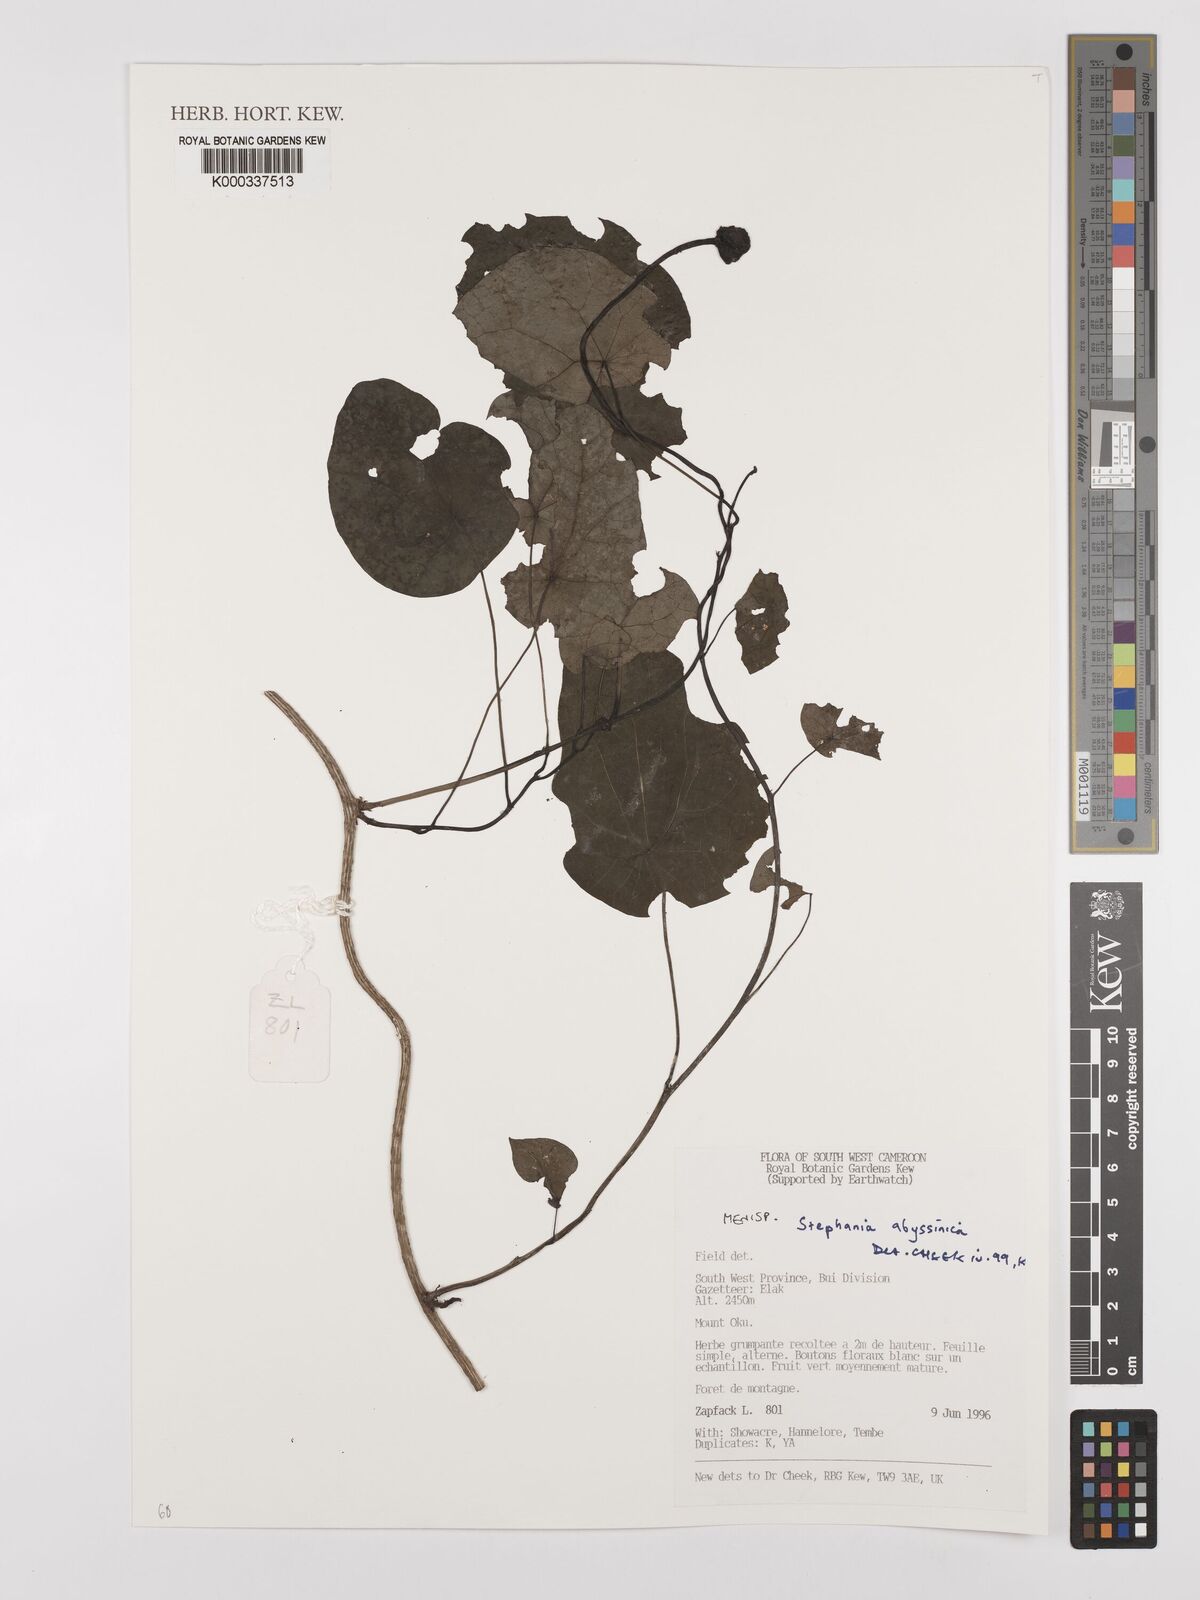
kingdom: Plantae
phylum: Tracheophyta
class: Magnoliopsida
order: Ranunculales
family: Menispermaceae
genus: Stephania
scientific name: Stephania
